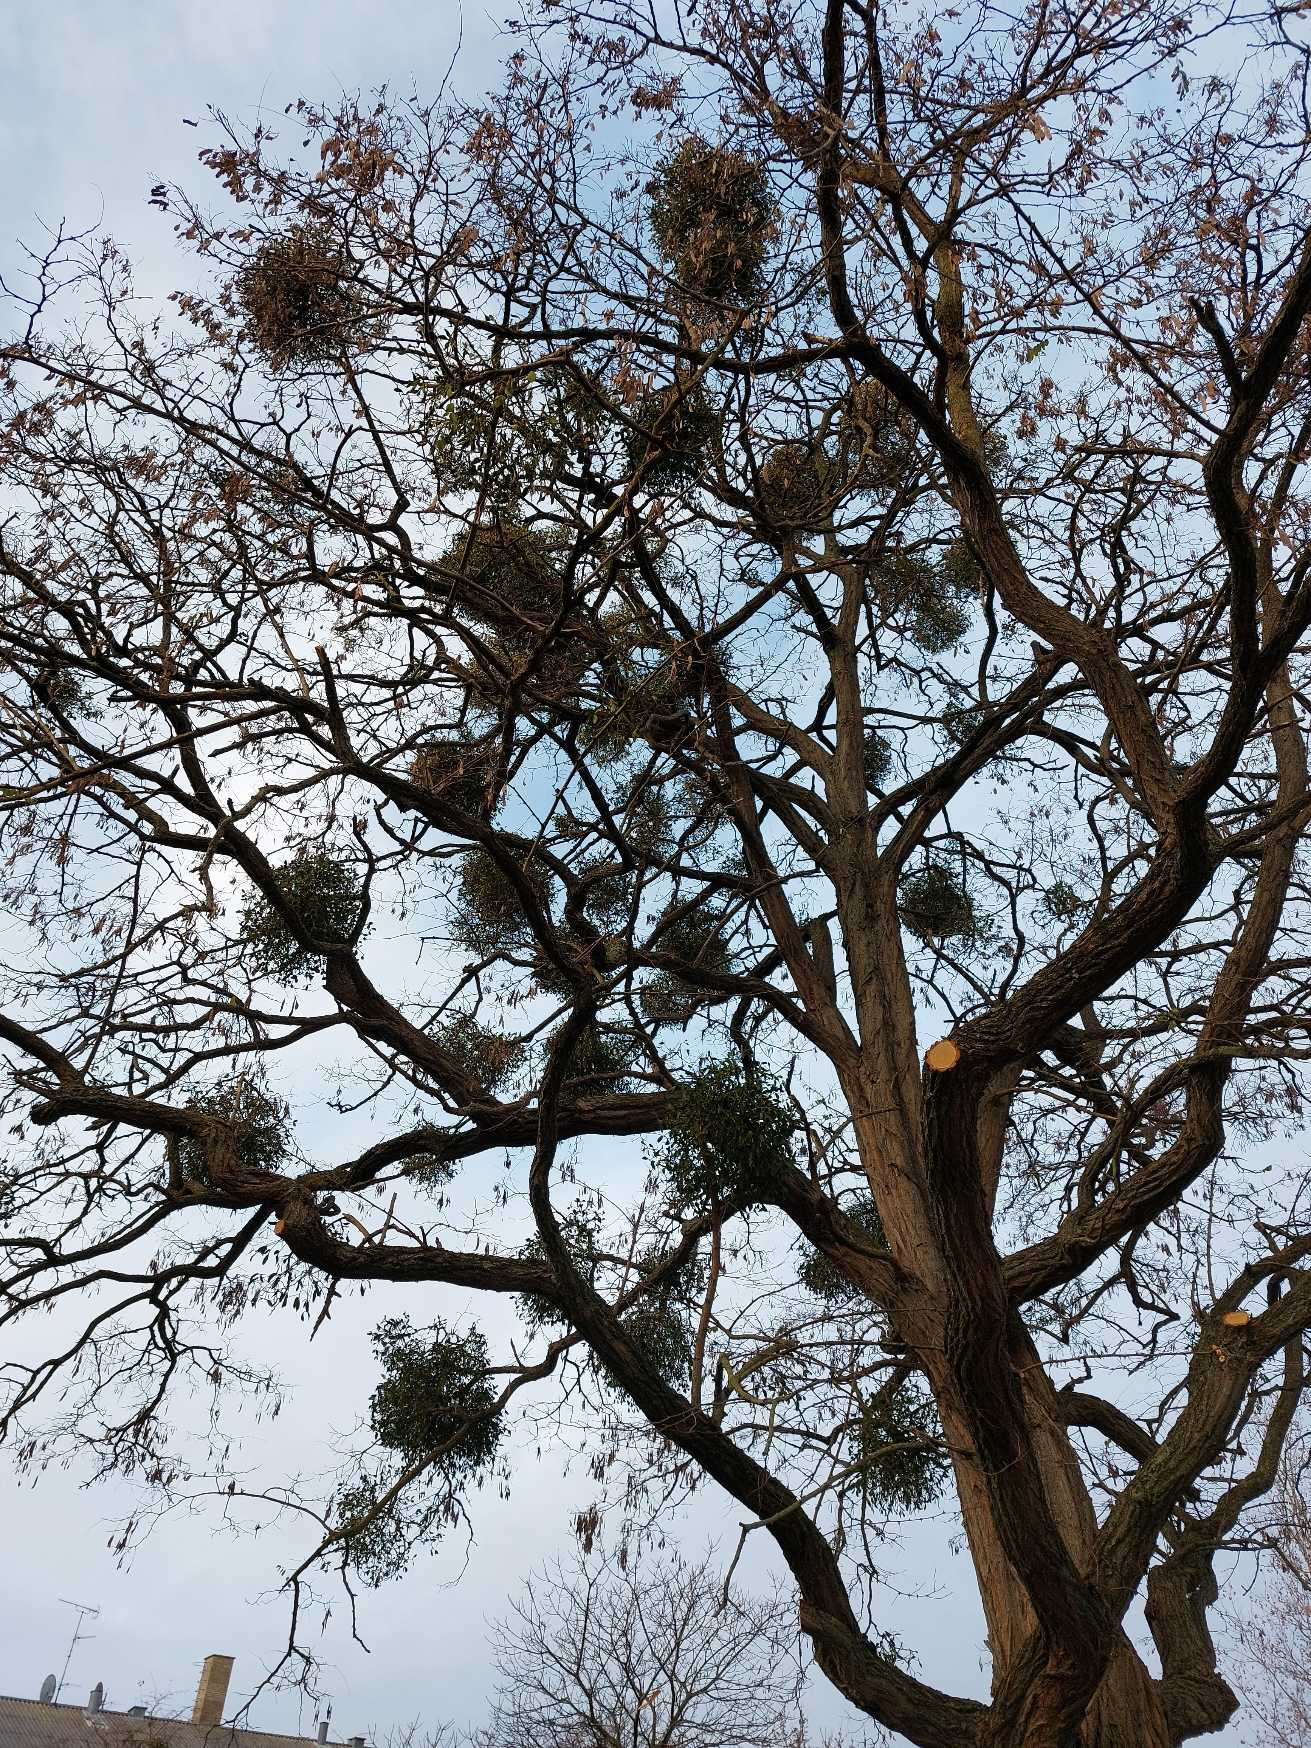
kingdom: Plantae
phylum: Tracheophyta
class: Magnoliopsida
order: Santalales
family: Viscaceae
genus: Viscum
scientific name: Viscum album
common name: Mistelten
